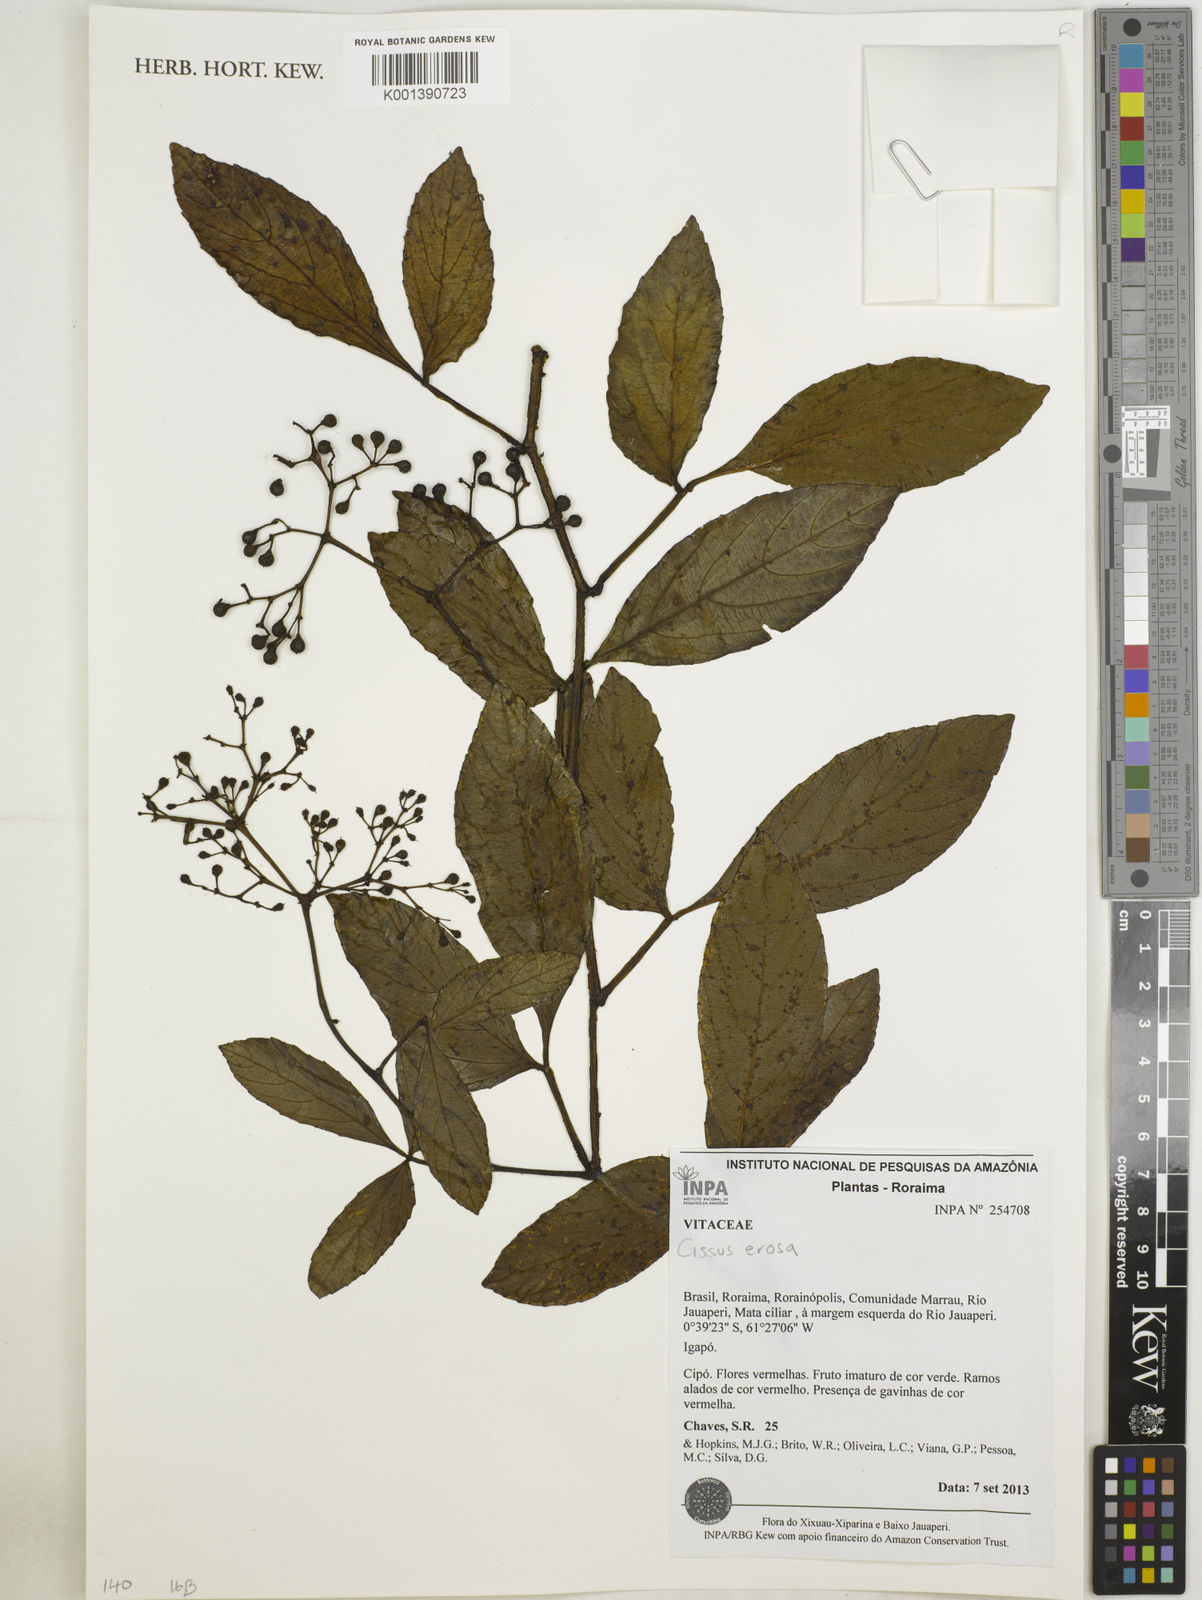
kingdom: Plantae
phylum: Tracheophyta
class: Magnoliopsida
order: Vitales
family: Vitaceae
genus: Cissus
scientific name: Cissus erosa
